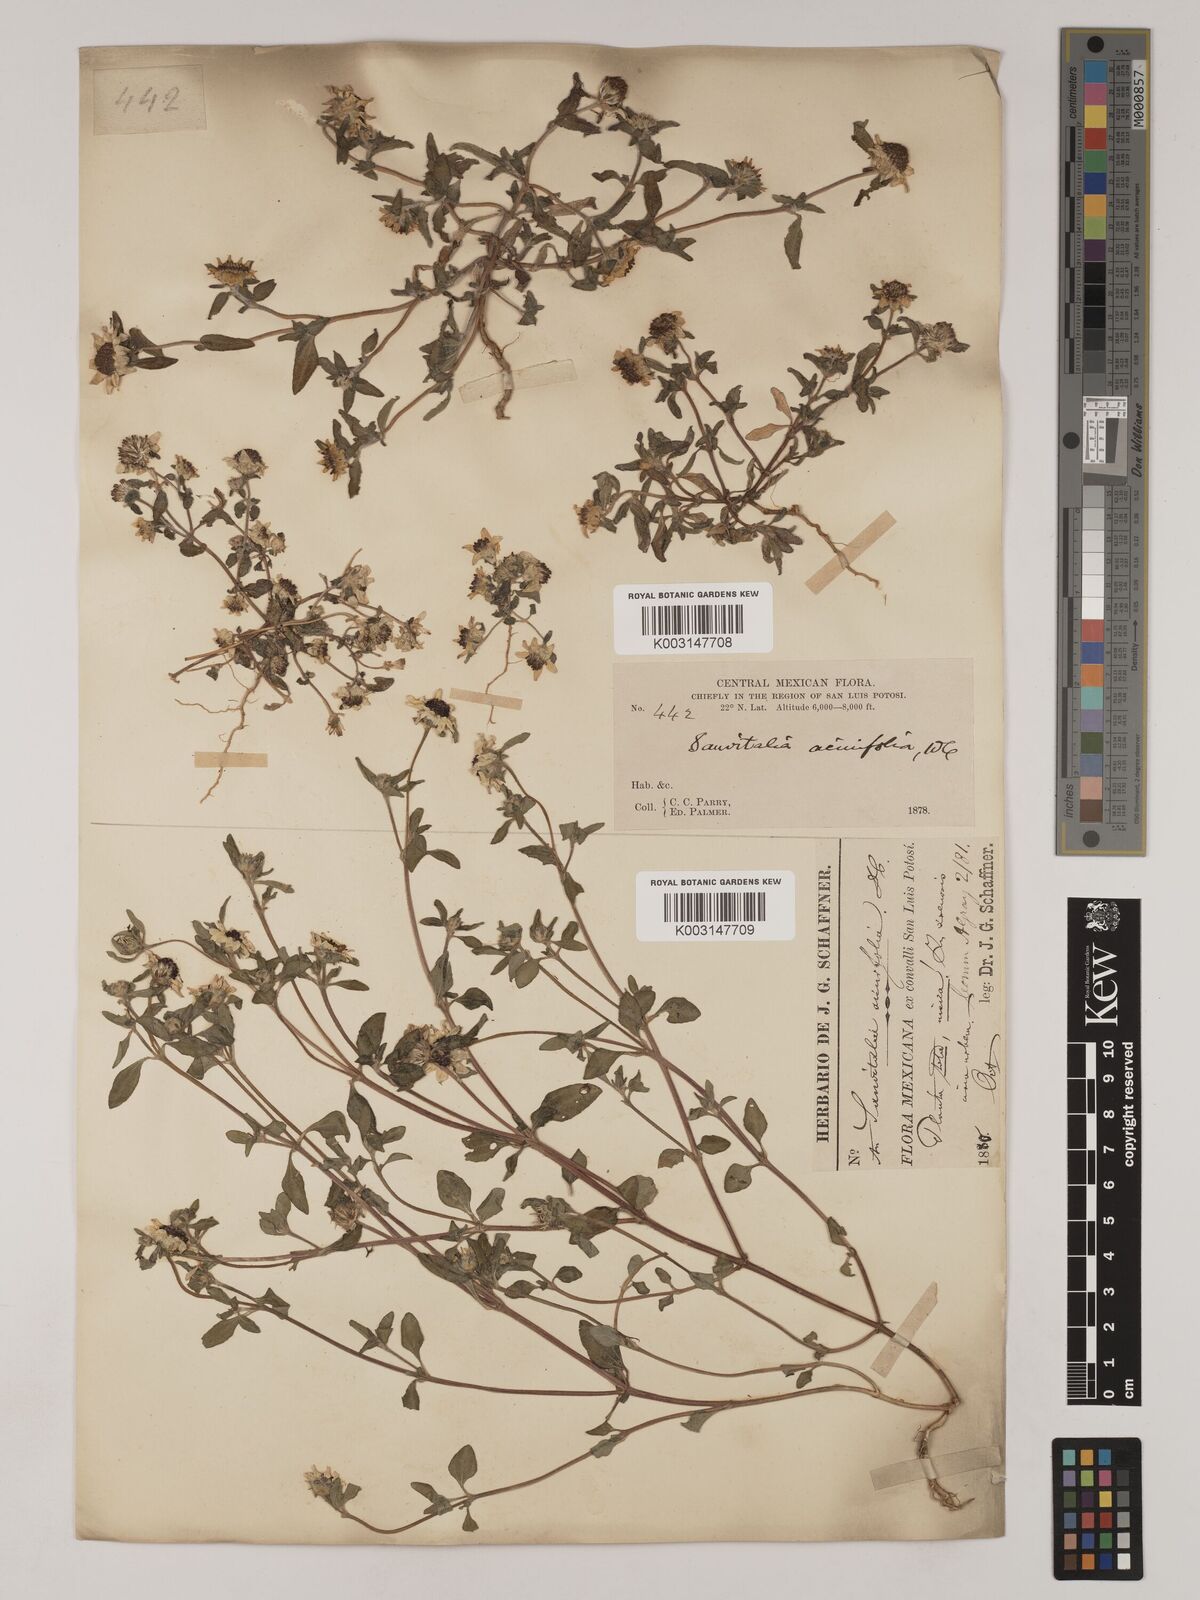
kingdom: Plantae
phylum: Tracheophyta
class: Magnoliopsida
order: Asterales
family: Asteraceae
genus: Sanvitalia
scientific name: Sanvitalia procumbens
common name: Mexican creeping zinnia
